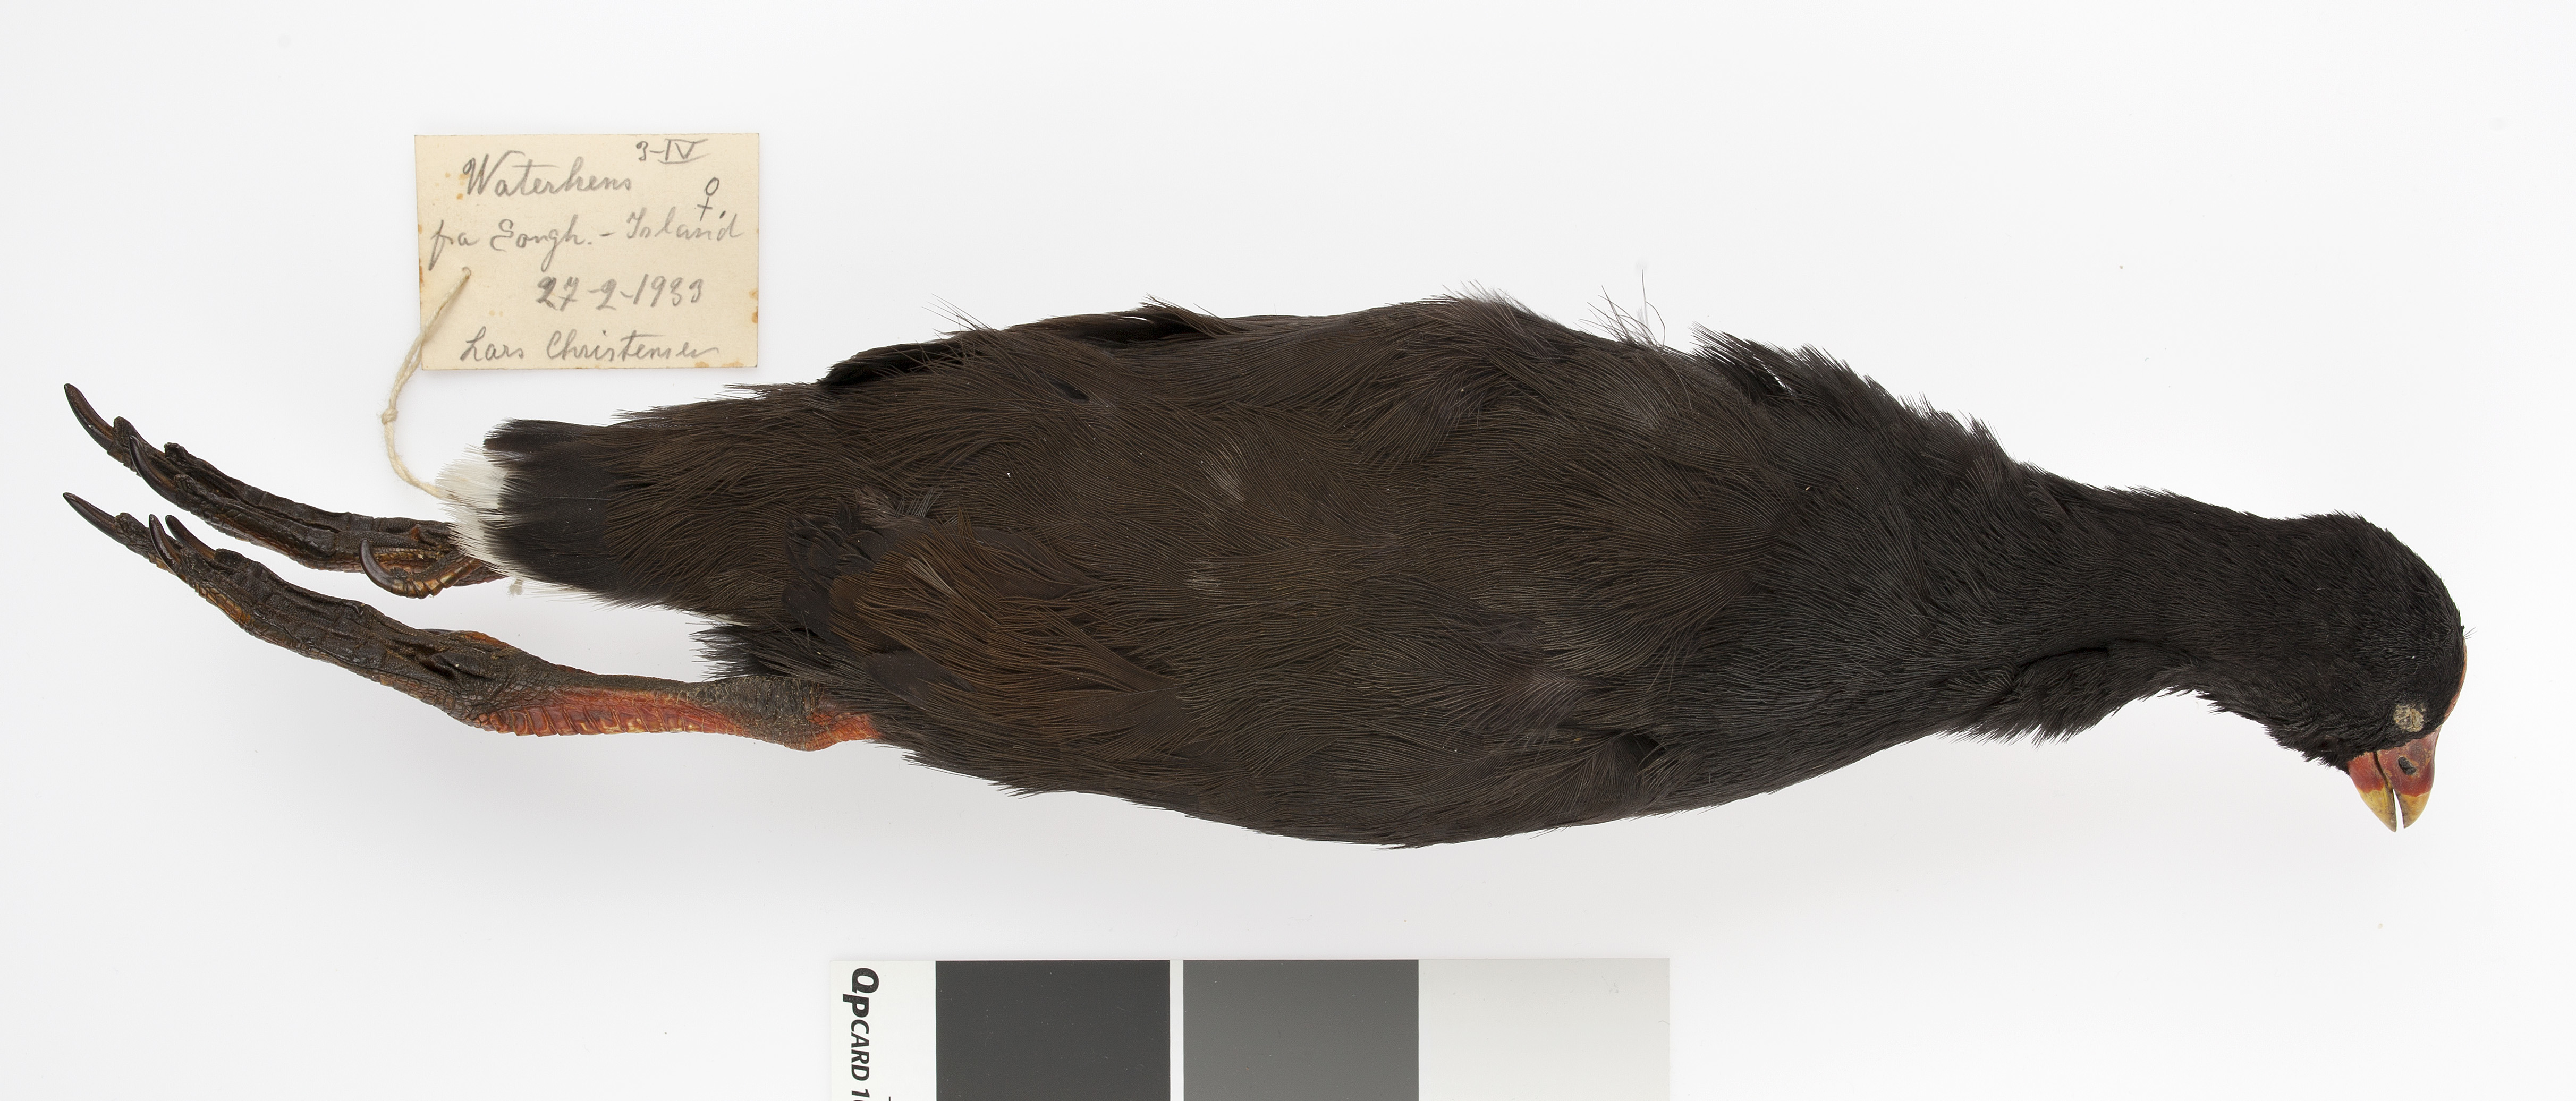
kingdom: Animalia
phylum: Chordata
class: Aves
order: Gruiformes
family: Rallidae
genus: Gallinula
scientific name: Gallinula comeri
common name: Gough moorhen
